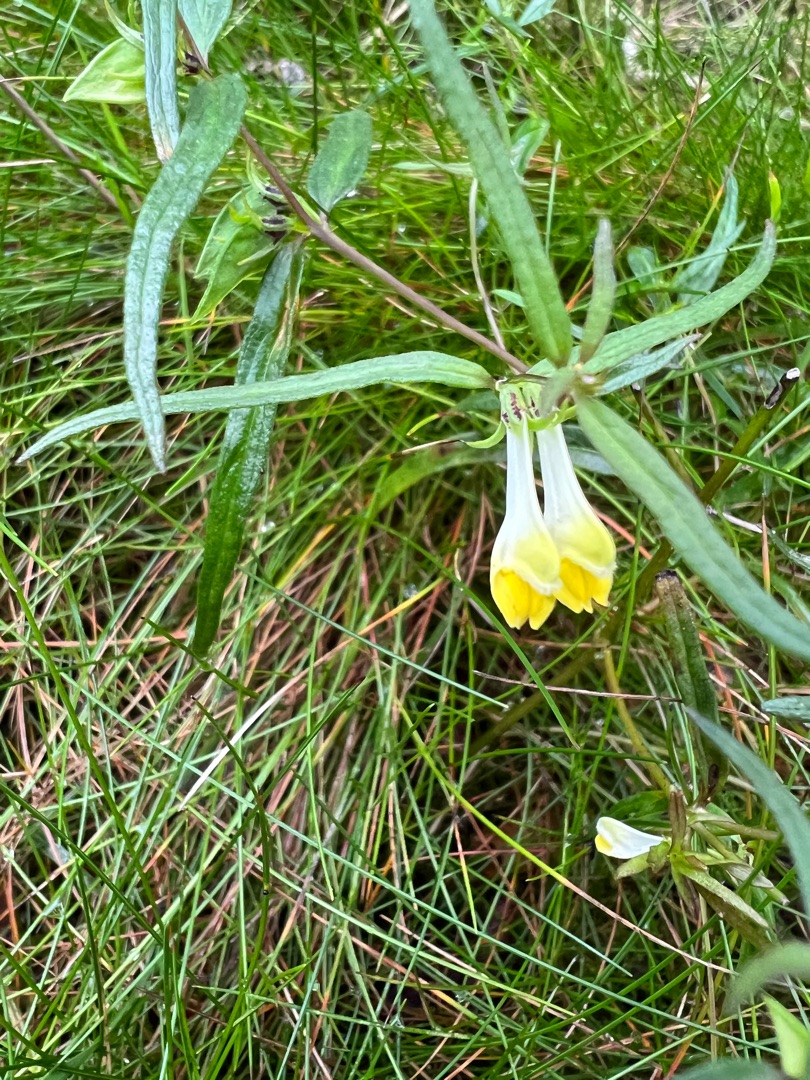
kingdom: Plantae
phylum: Tracheophyta
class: Magnoliopsida
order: Lamiales
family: Orobanchaceae
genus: Melampyrum
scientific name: Melampyrum pratense
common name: Almindelig kohvede
